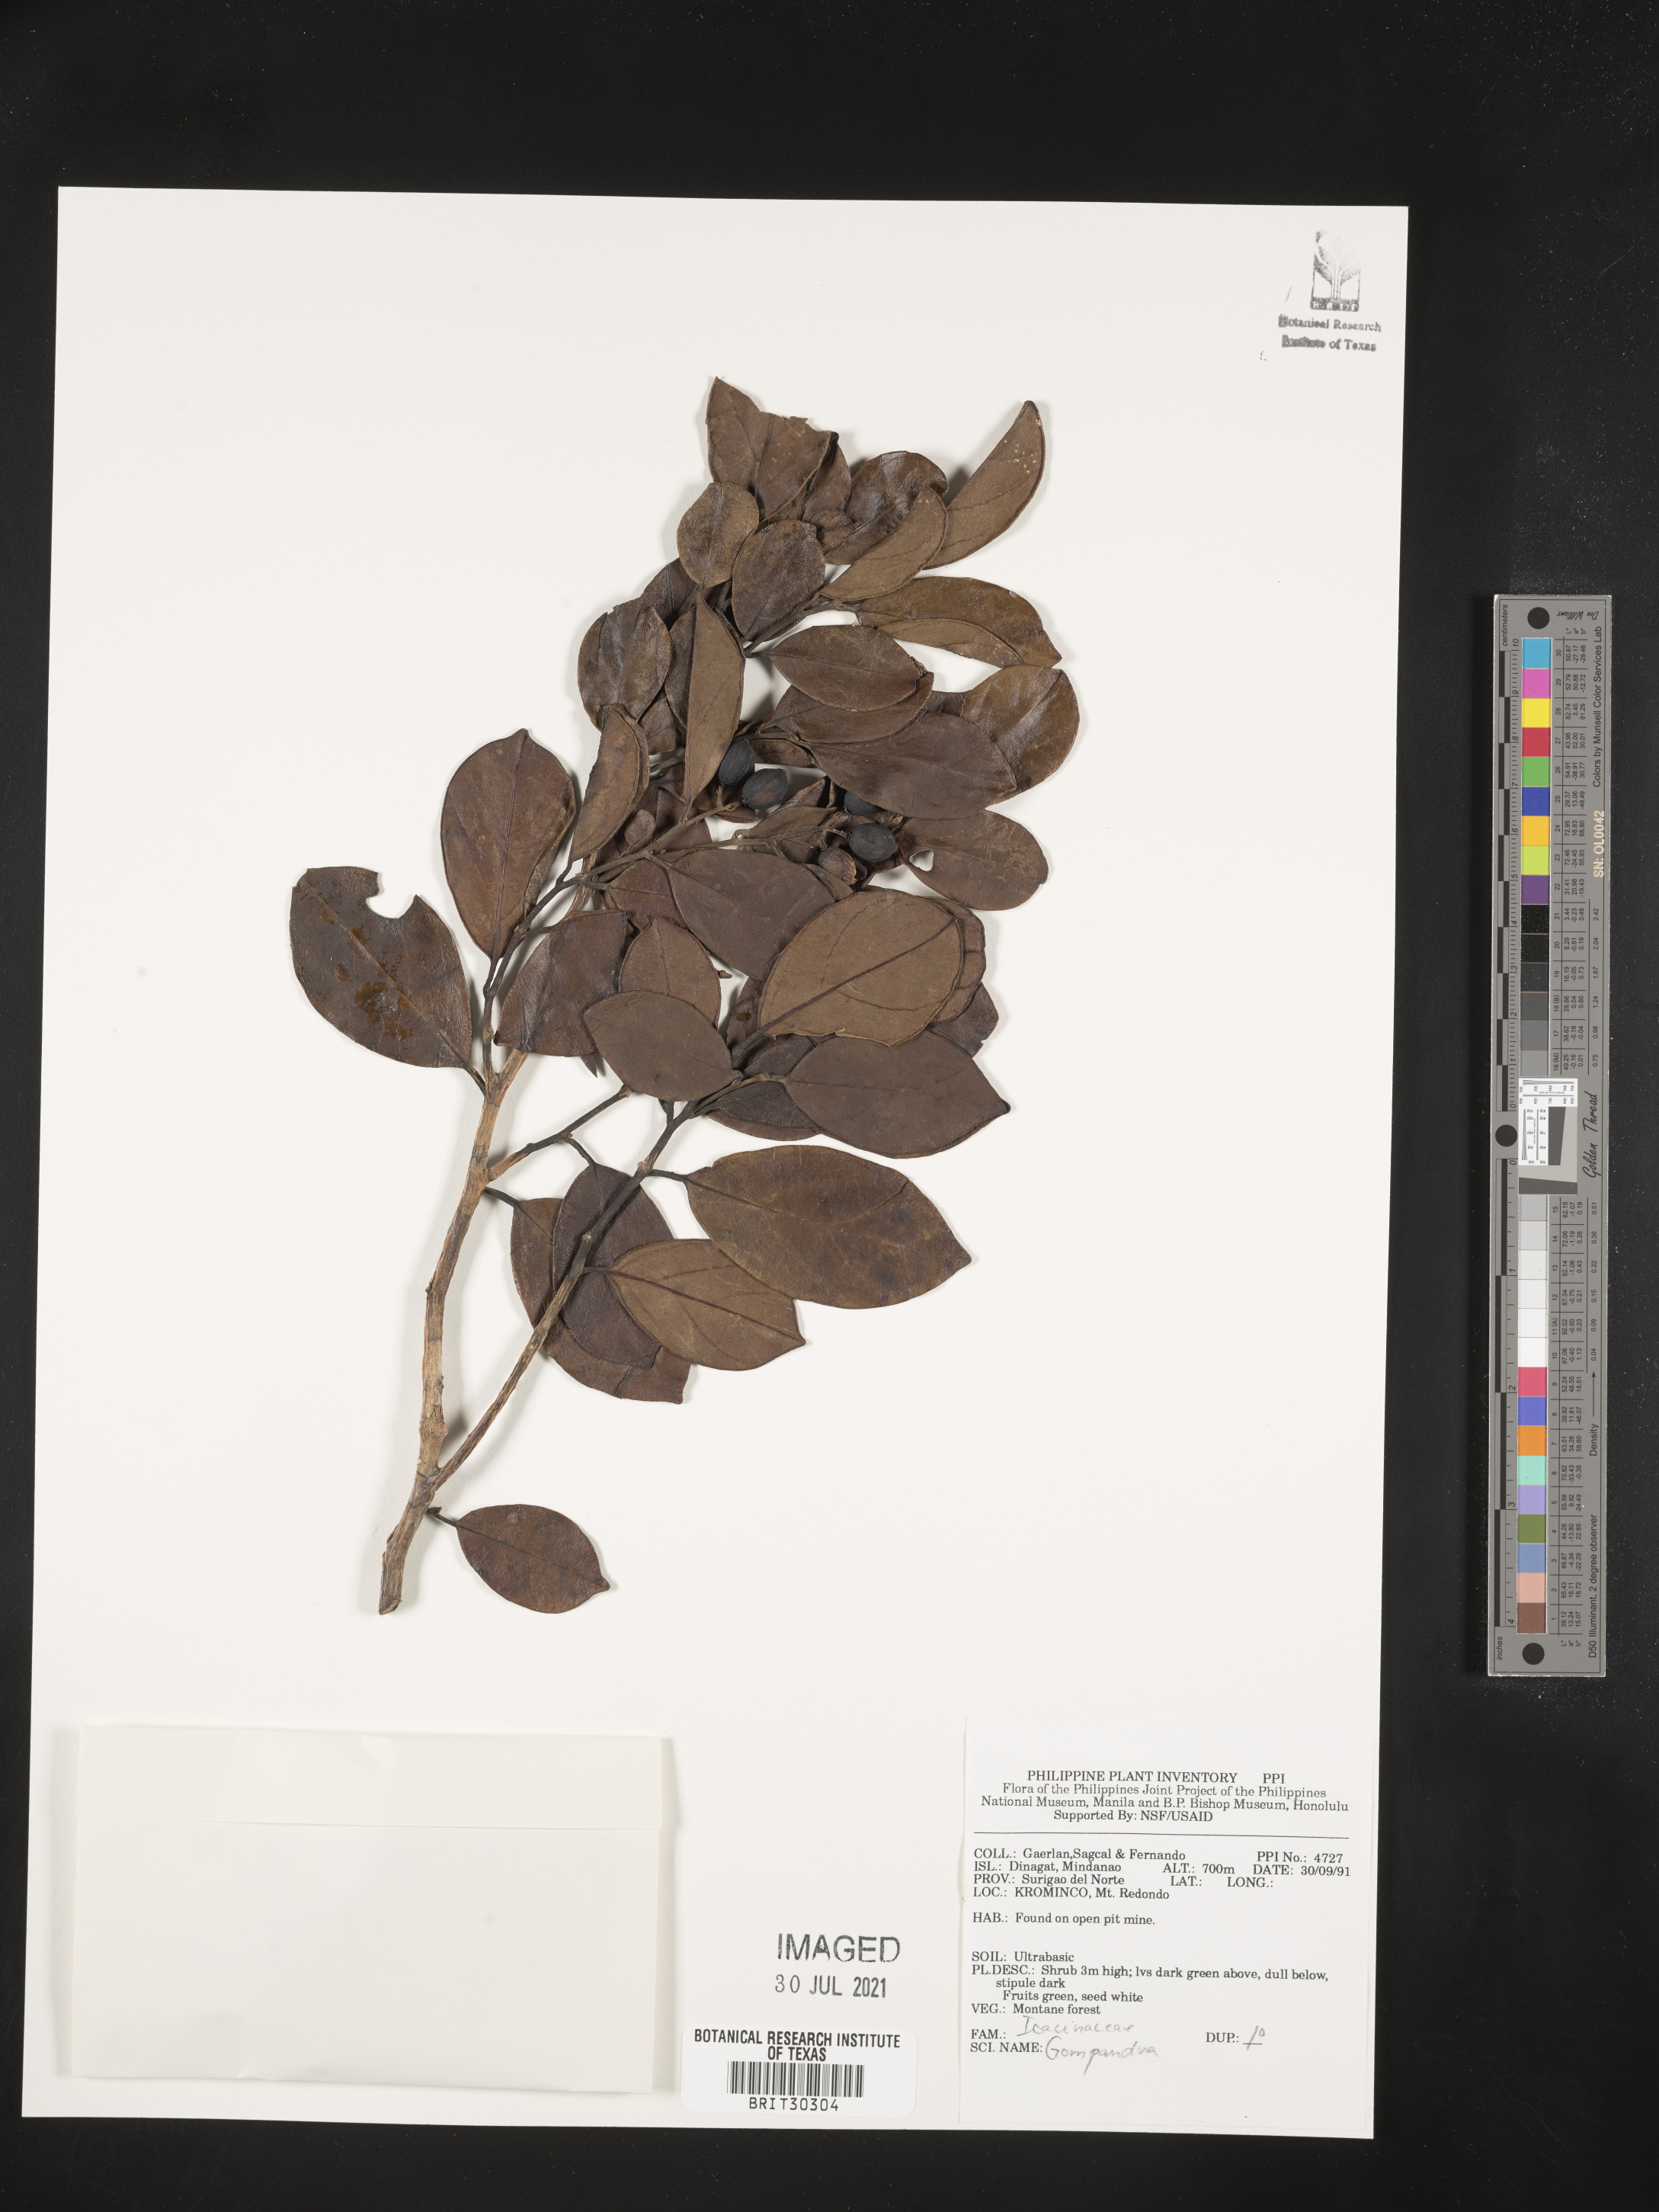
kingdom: Plantae
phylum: Tracheophyta
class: Magnoliopsida
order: Cardiopteridales
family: Stemonuraceae
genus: Gomphandra
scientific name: Gomphandra
